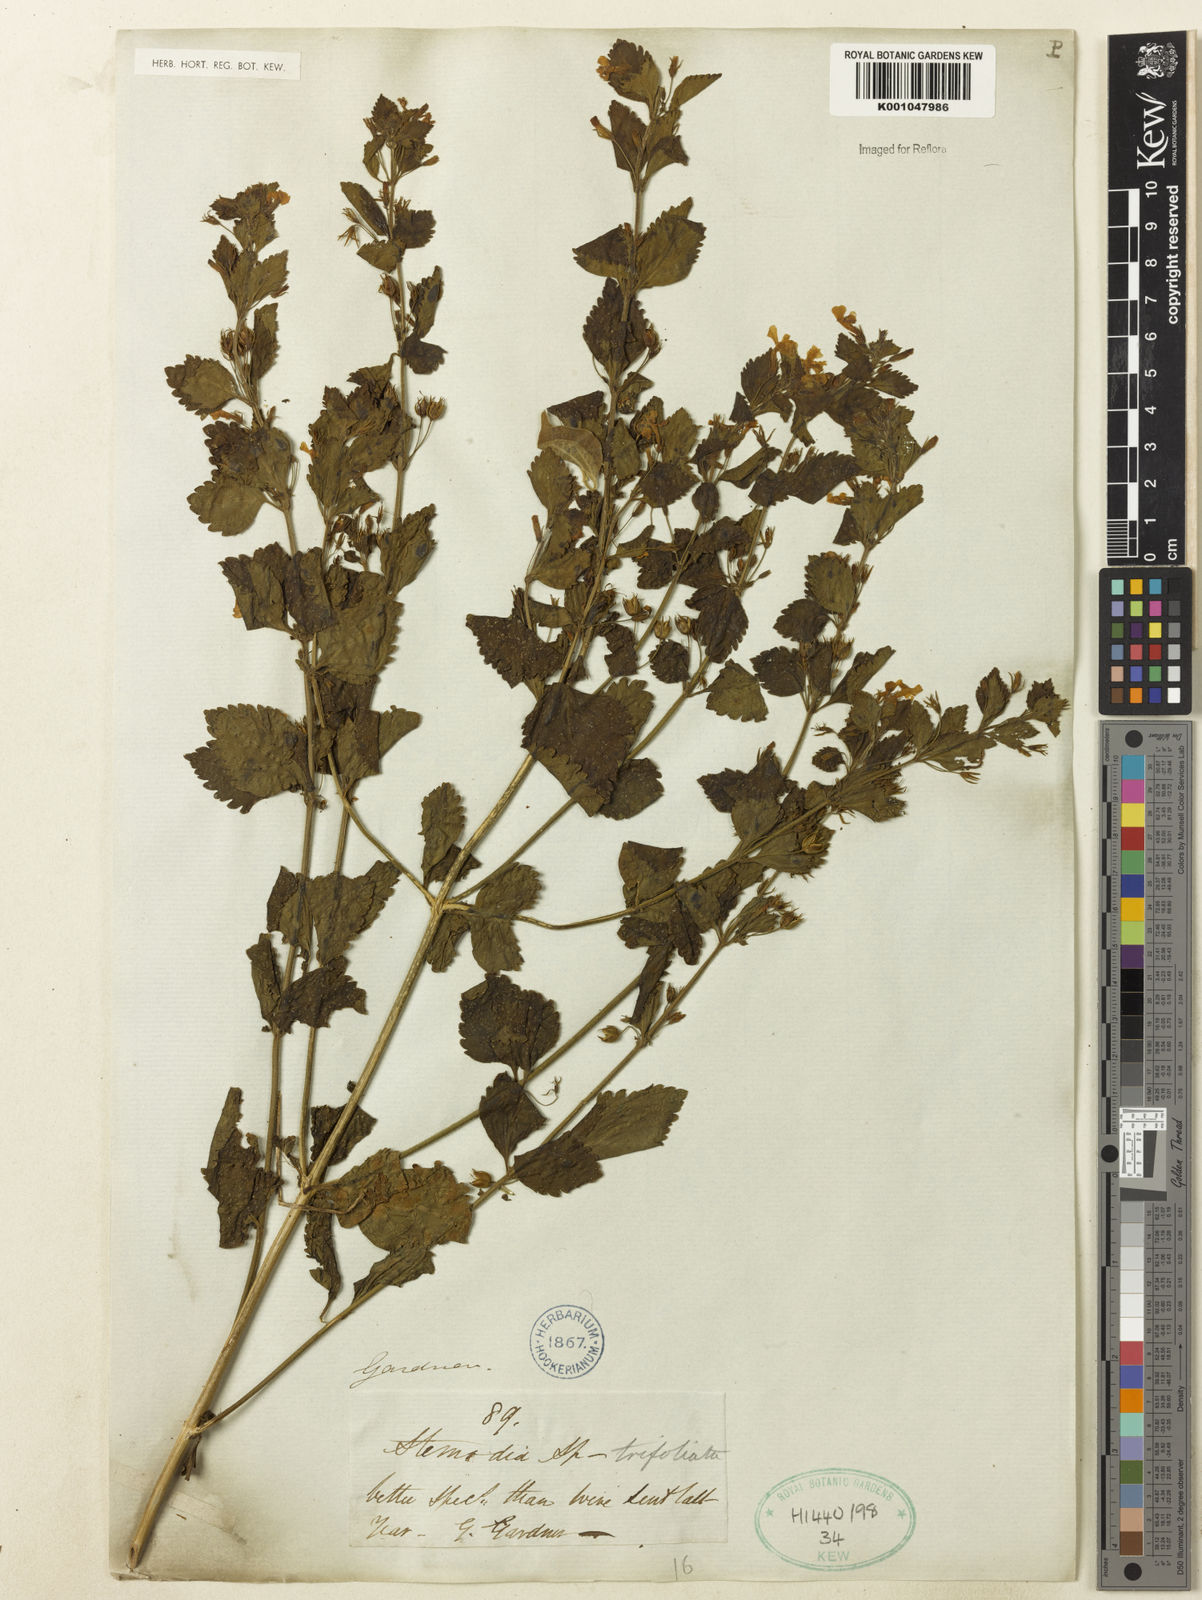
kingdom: Plantae
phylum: Tracheophyta
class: Magnoliopsida
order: Lamiales
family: Plantaginaceae
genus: Stemodia
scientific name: Stemodia trifoliata
